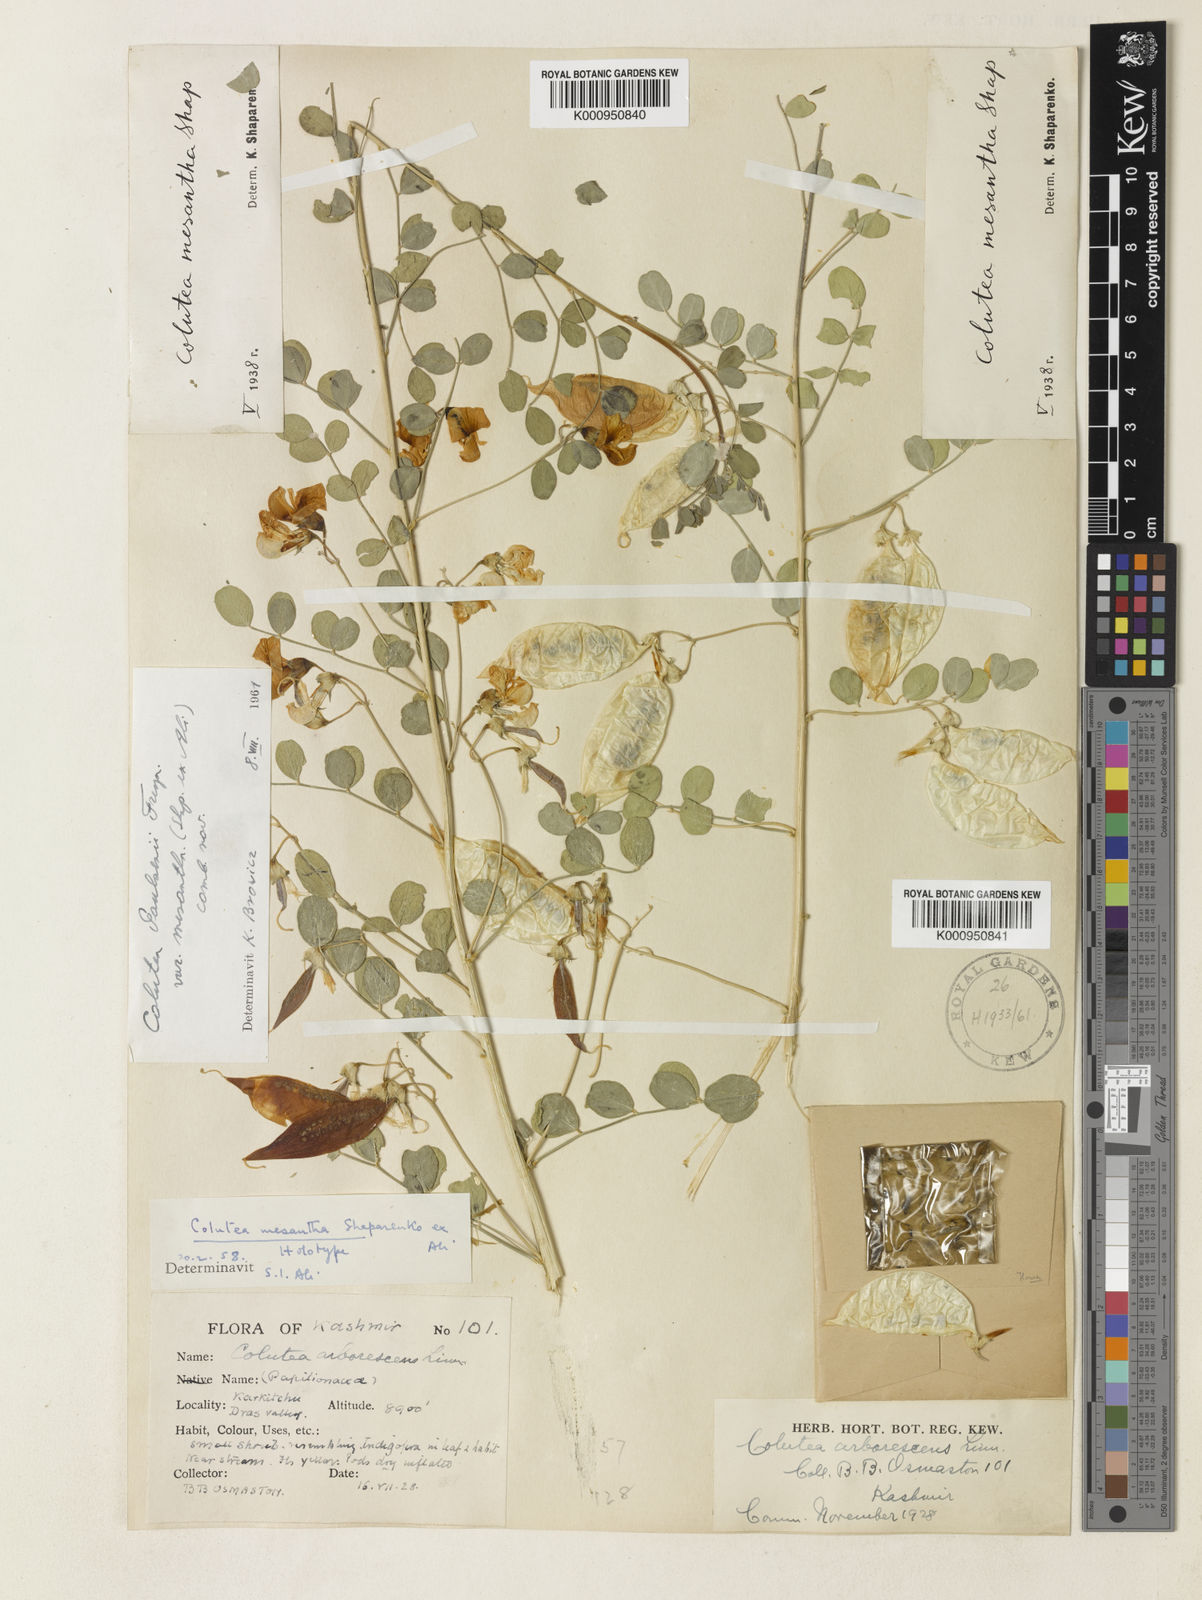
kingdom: Plantae
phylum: Tracheophyta
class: Magnoliopsida
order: Fabales
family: Fabaceae
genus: Colutea
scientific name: Colutea arborescens
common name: Bladder-senna
